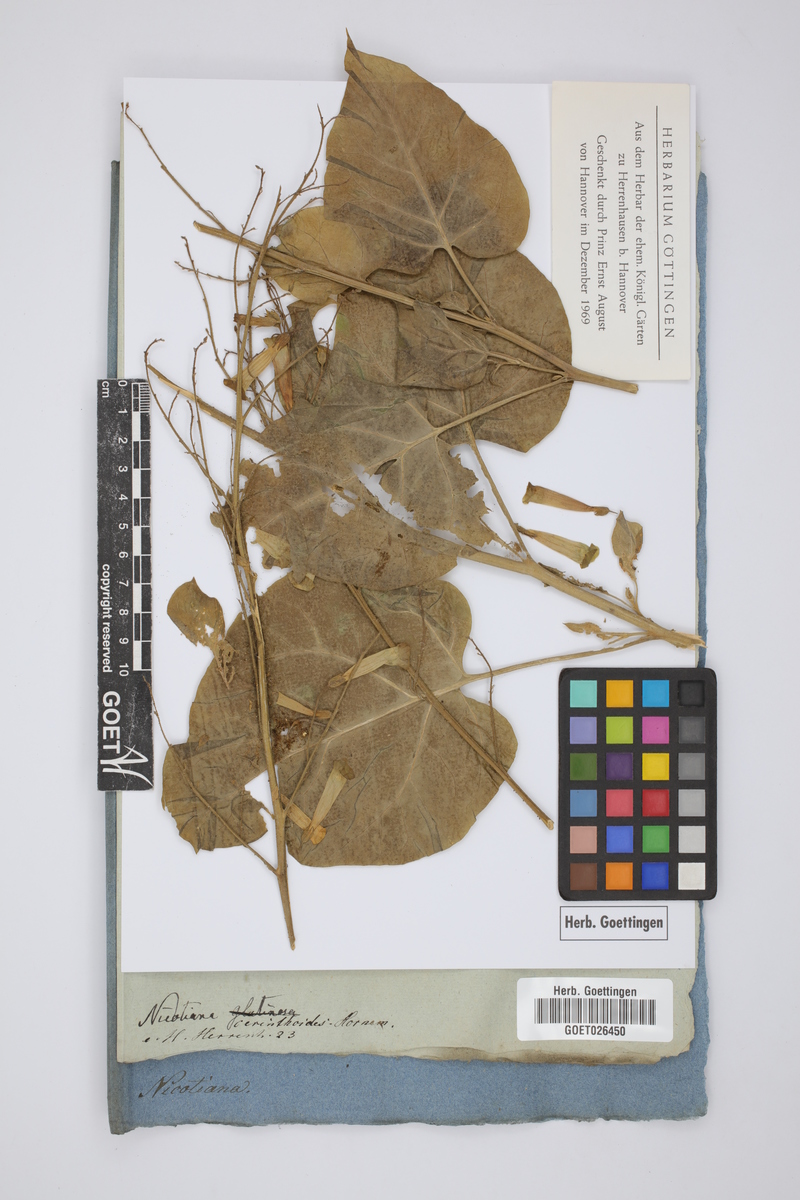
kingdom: Plantae
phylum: Tracheophyta
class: Magnoliopsida
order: Solanales
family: Solanaceae
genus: Nicotiana
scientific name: Nicotiana plumbaginifolia
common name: Tex-mex tobacco
